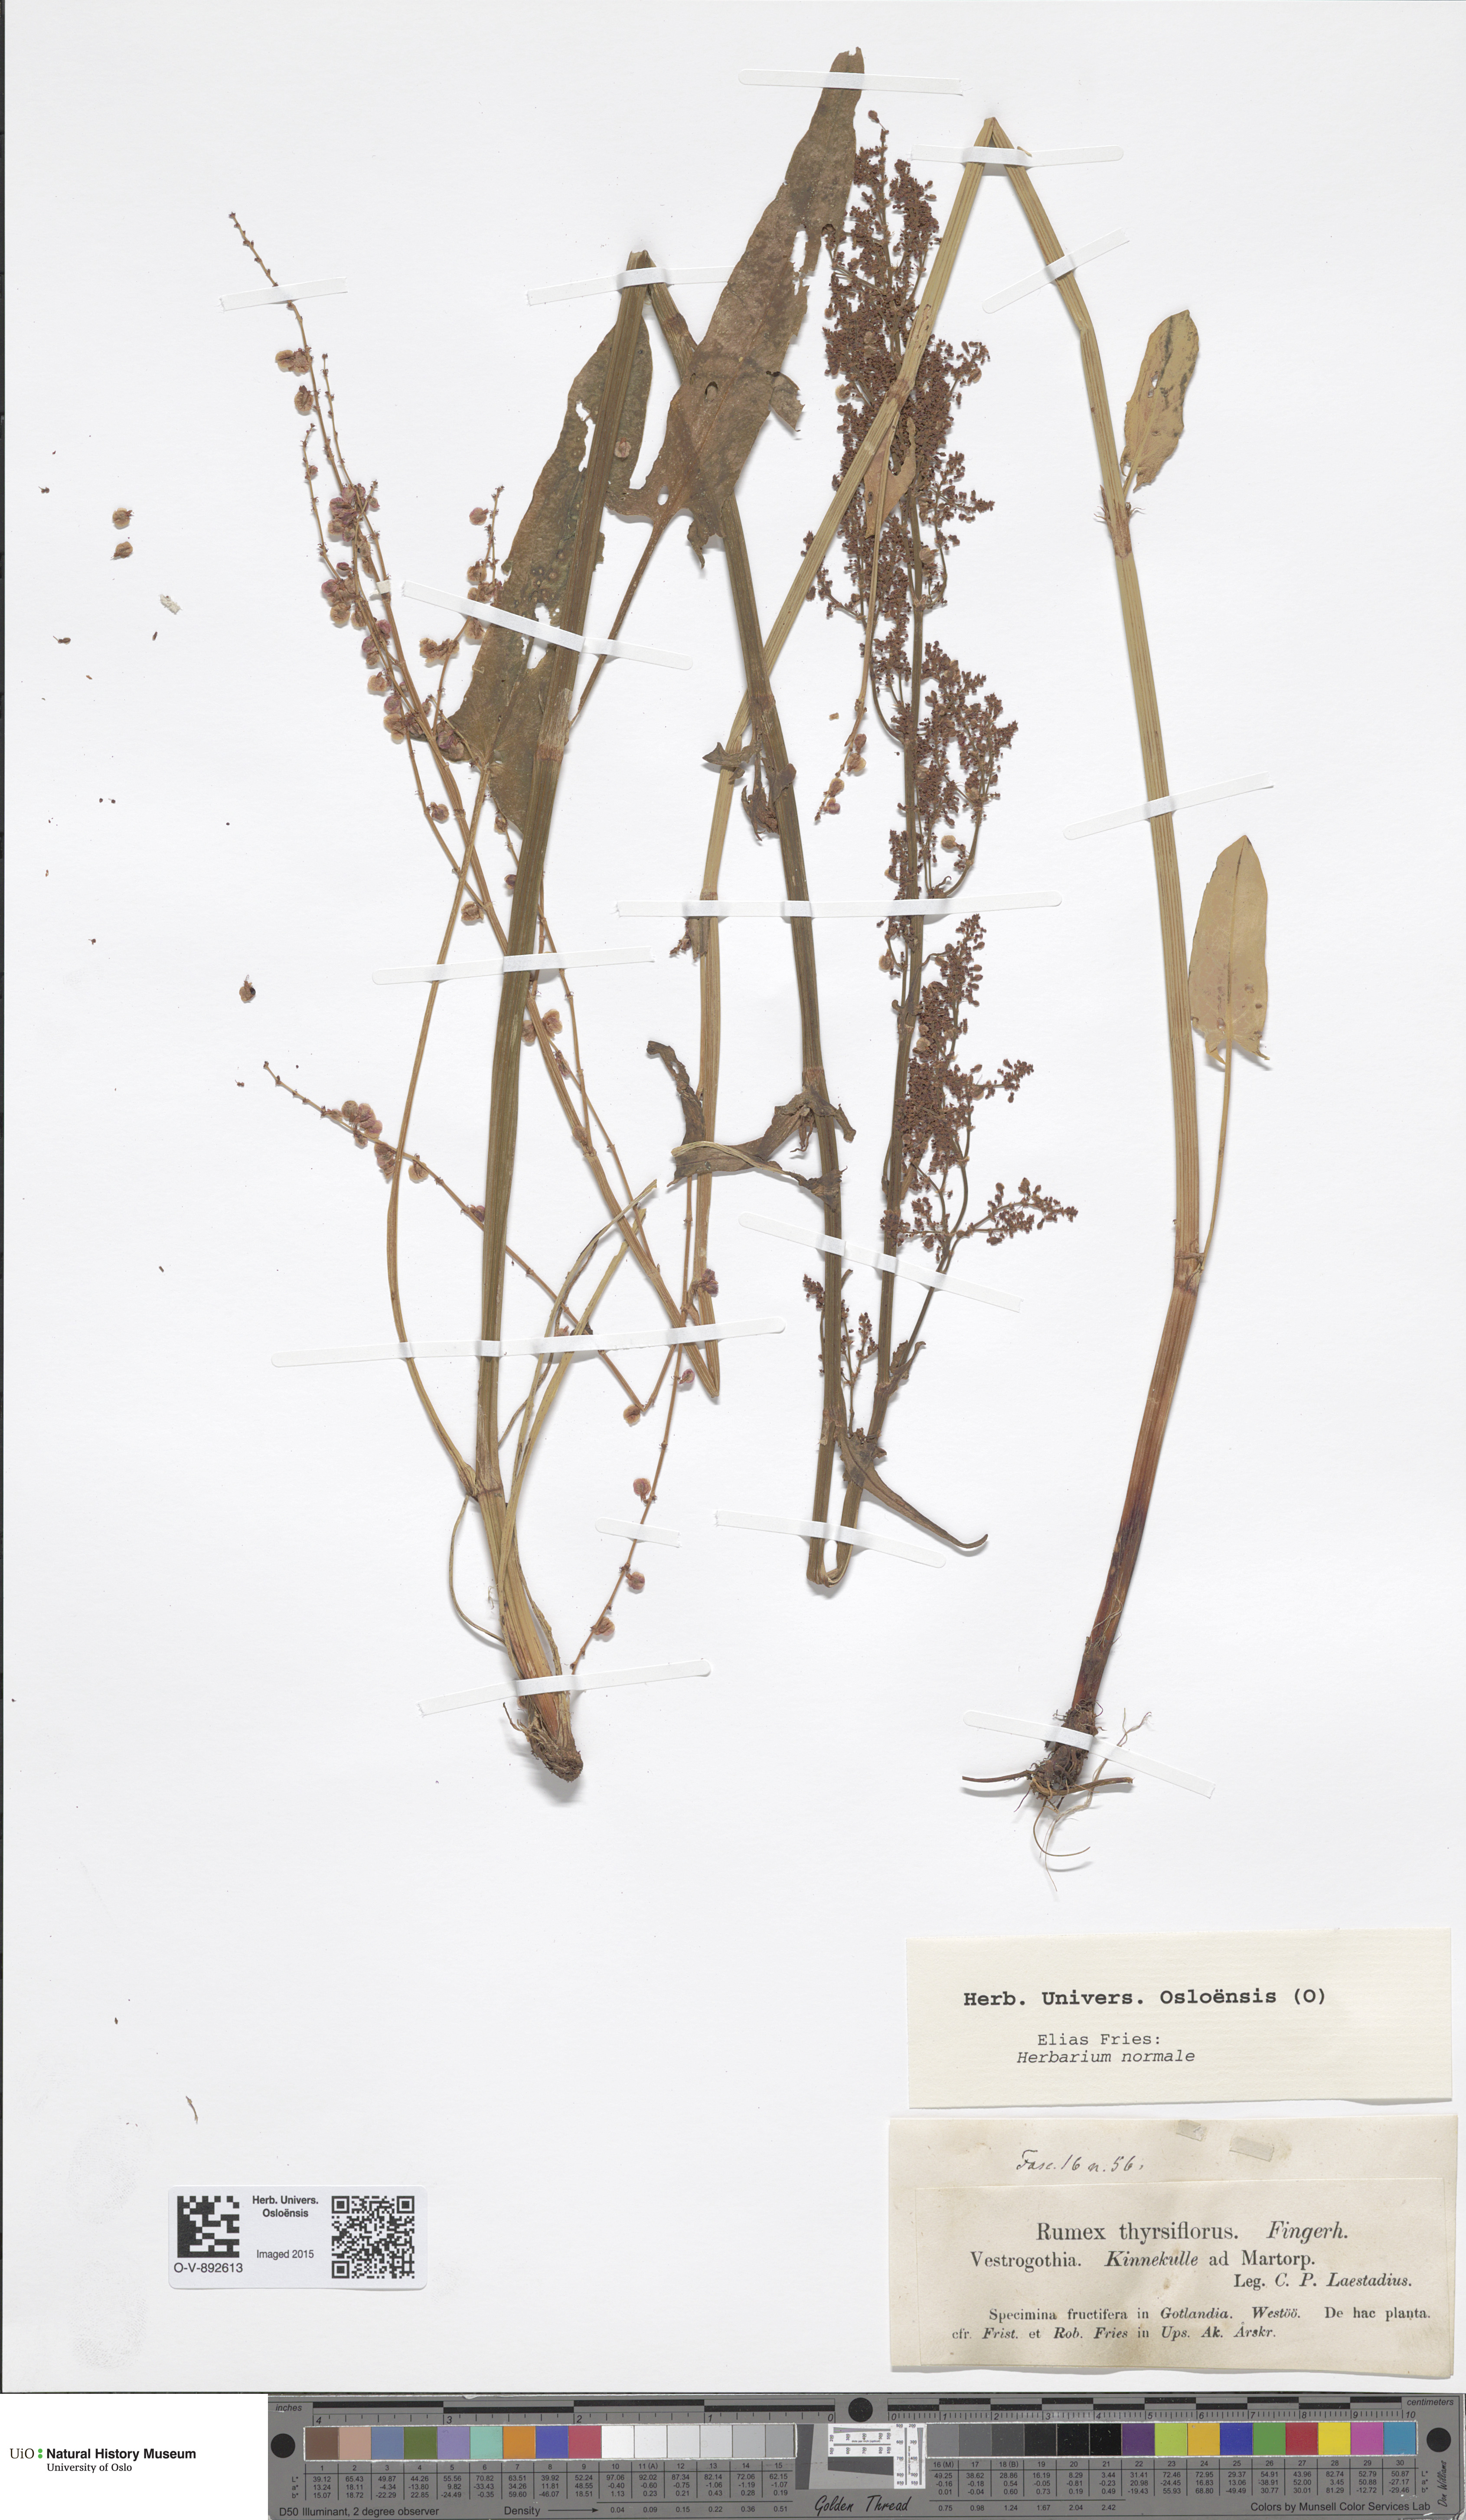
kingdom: Plantae
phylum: Tracheophyta
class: Magnoliopsida
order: Caryophyllales
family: Polygonaceae
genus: Rumex
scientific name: Rumex thyrsiflorus
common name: Garden sorrel
